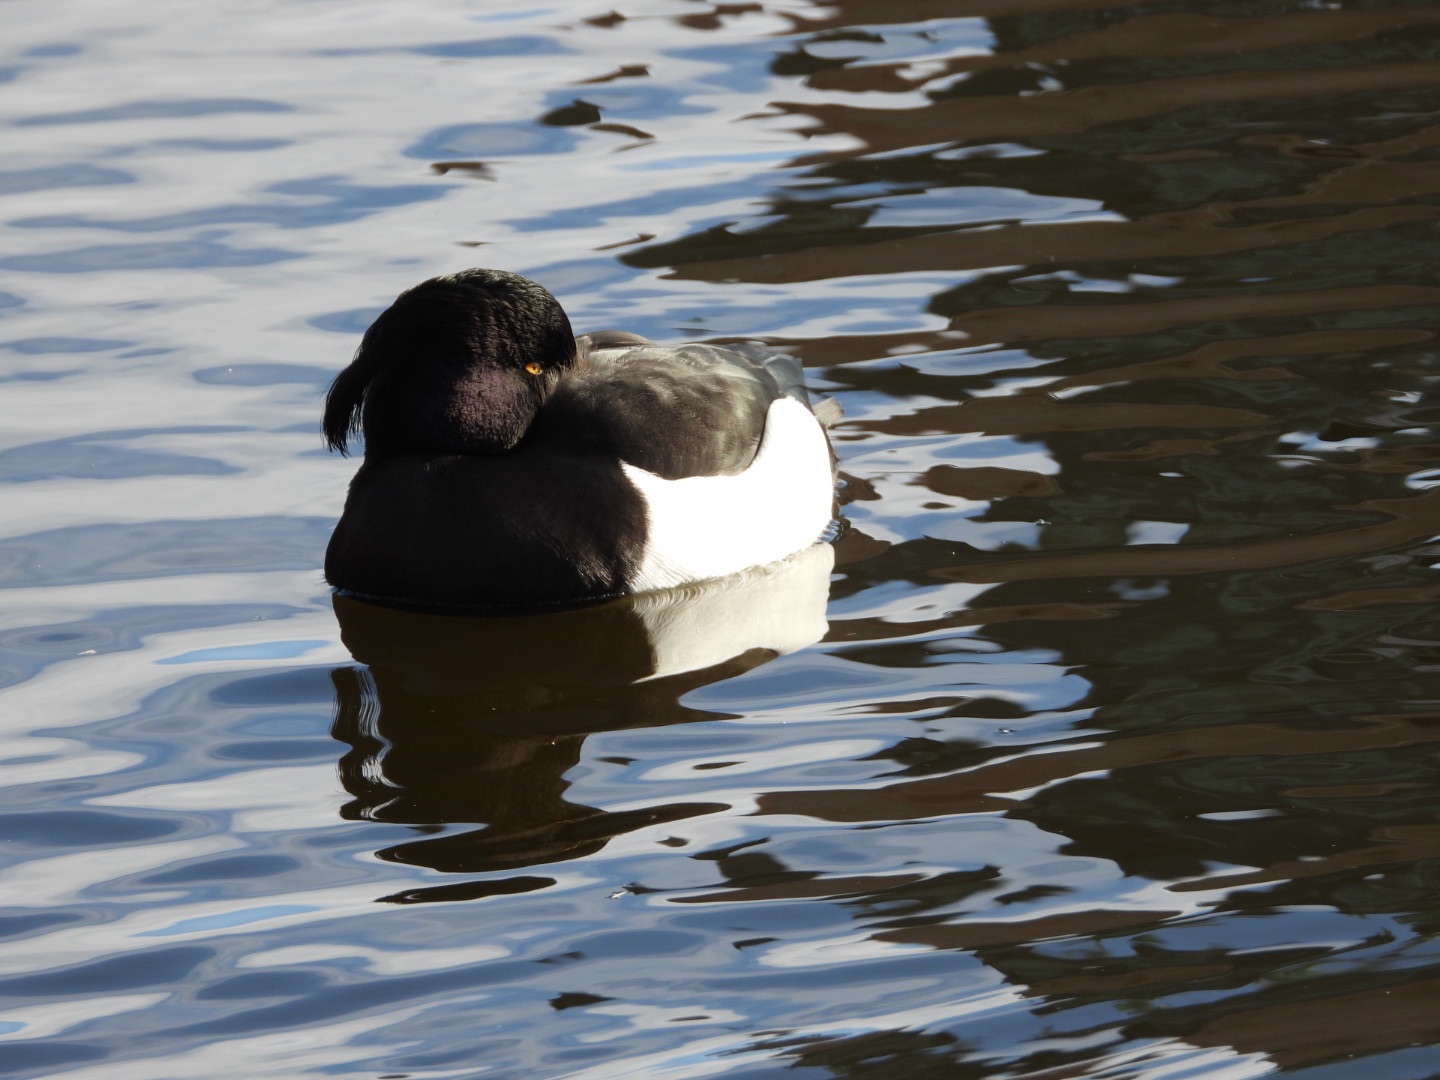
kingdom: Animalia
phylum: Chordata
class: Aves
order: Anseriformes
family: Anatidae
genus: Aythya
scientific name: Aythya fuligula
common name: Troldand
